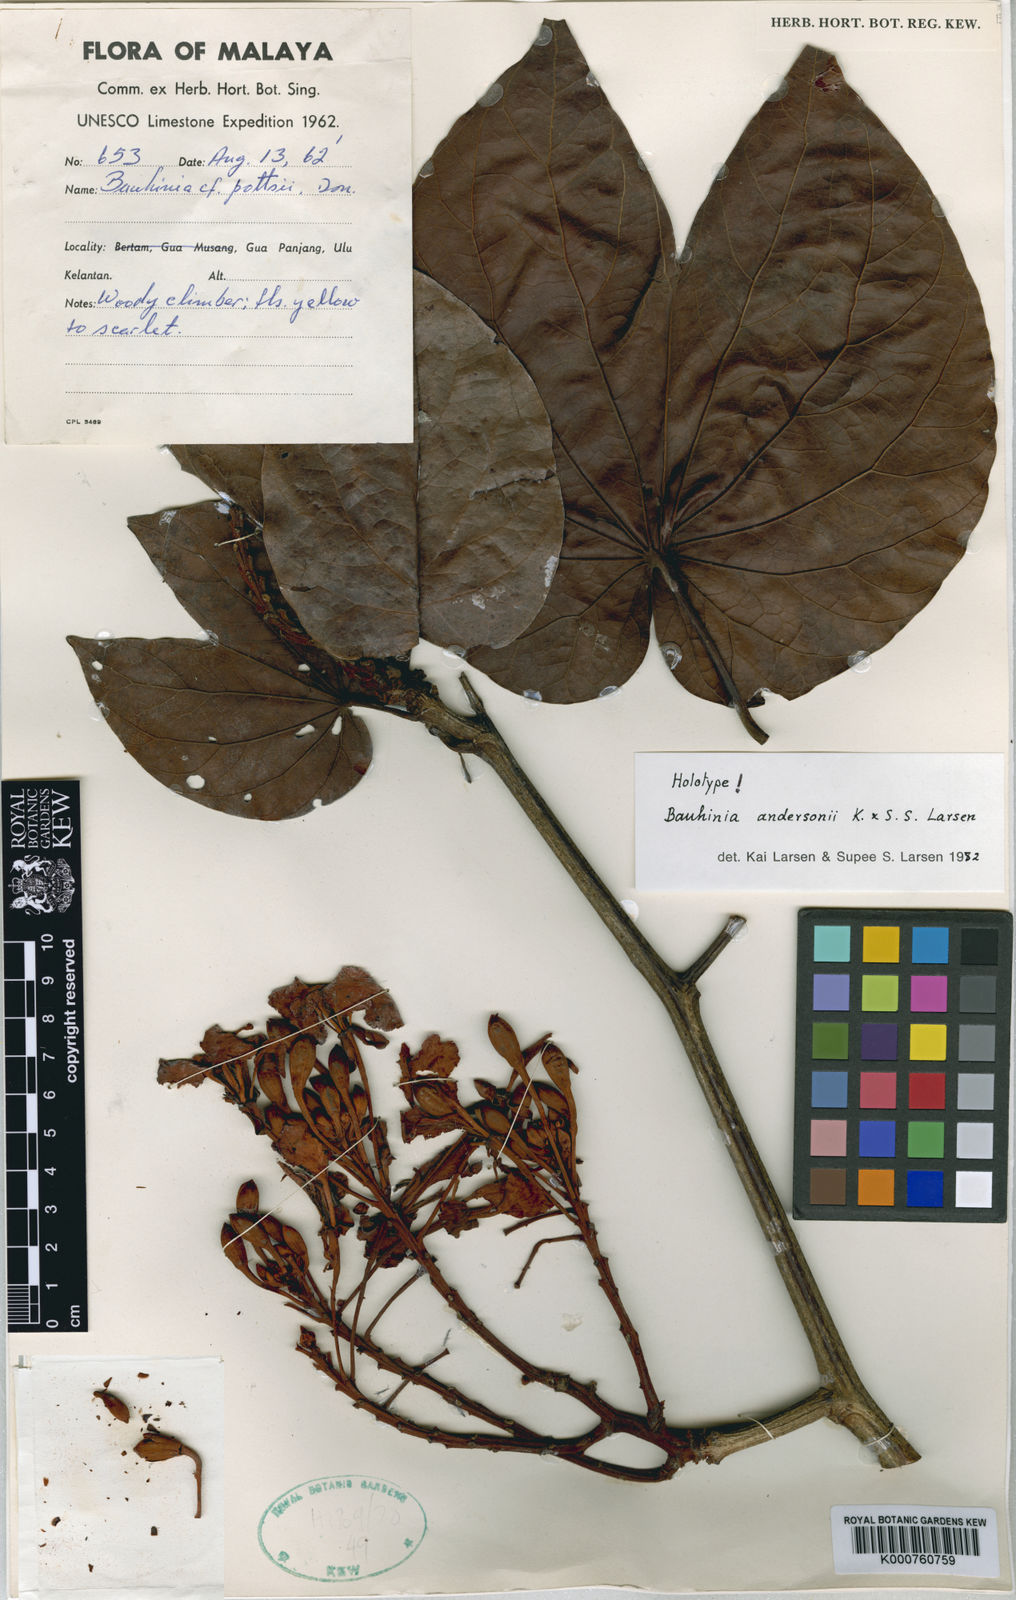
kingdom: Plantae
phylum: Tracheophyta
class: Magnoliopsida
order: Fabales
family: Fabaceae
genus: Phanera
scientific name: Phanera andersonii
